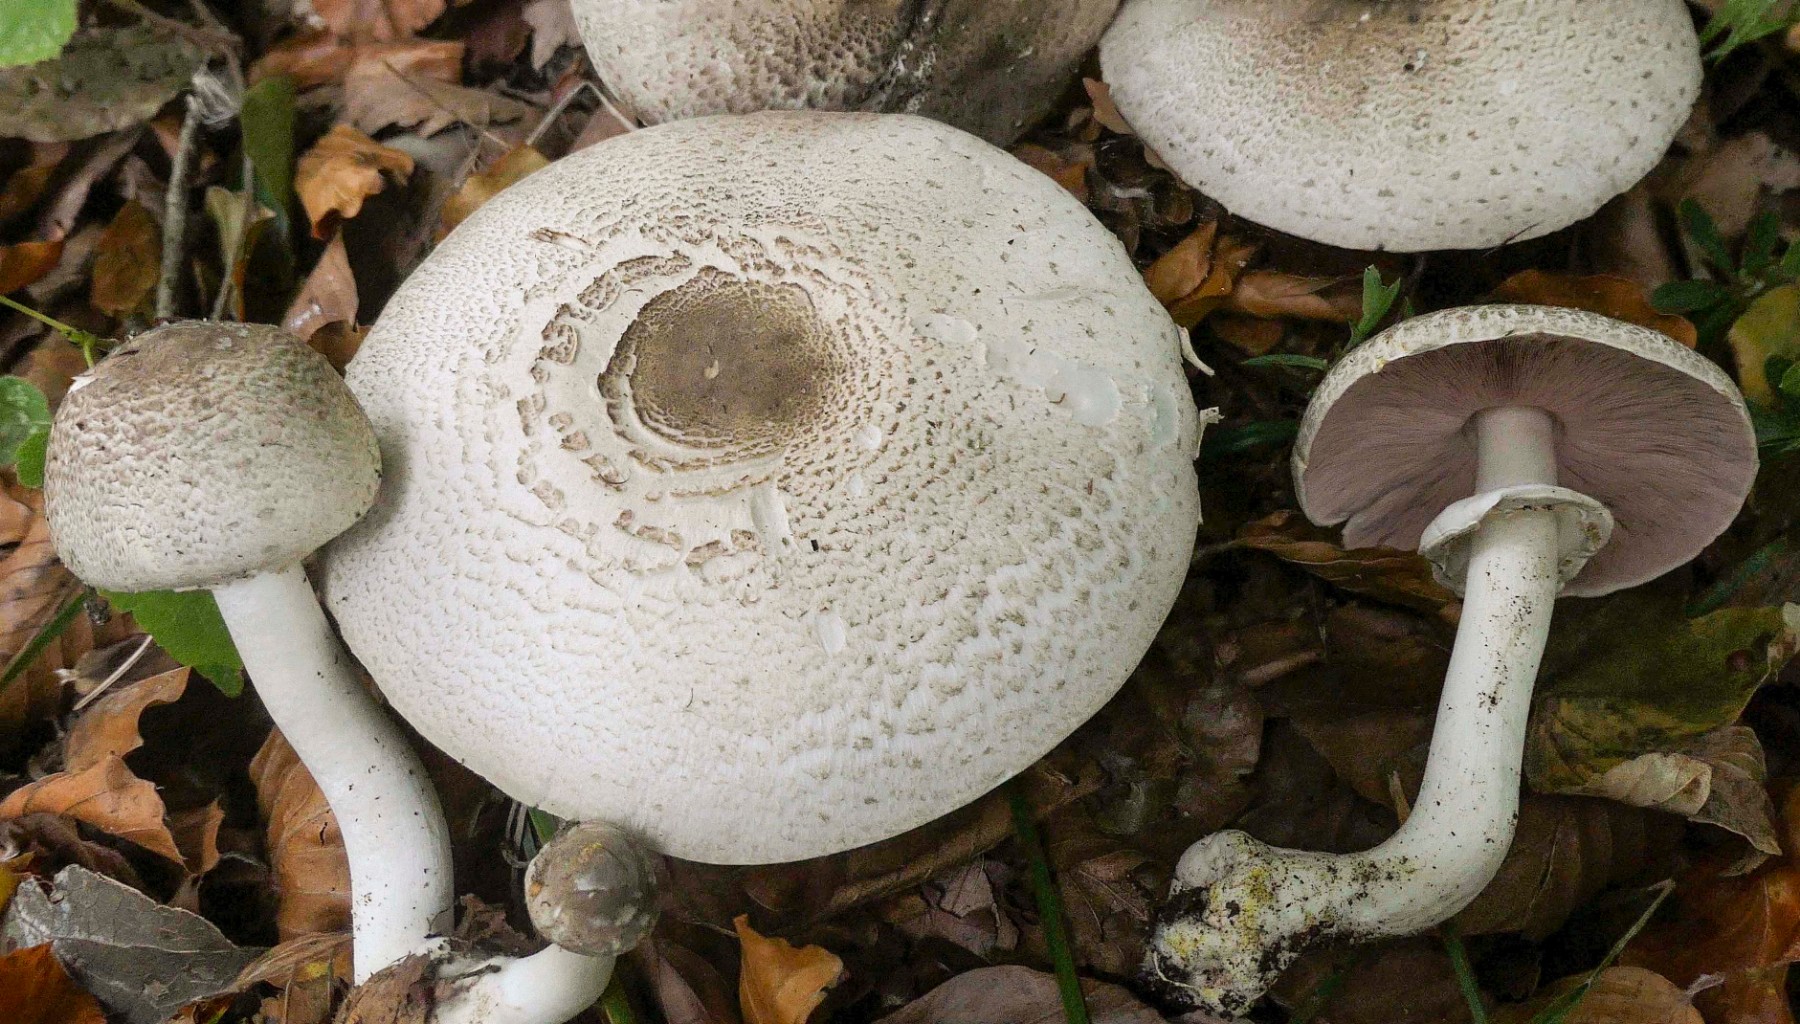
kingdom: Fungi
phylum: Basidiomycota
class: Agaricomycetes
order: Agaricales
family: Agaricaceae
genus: Agaricus
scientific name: Agaricus moelleri
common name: perlehøne-champignon
